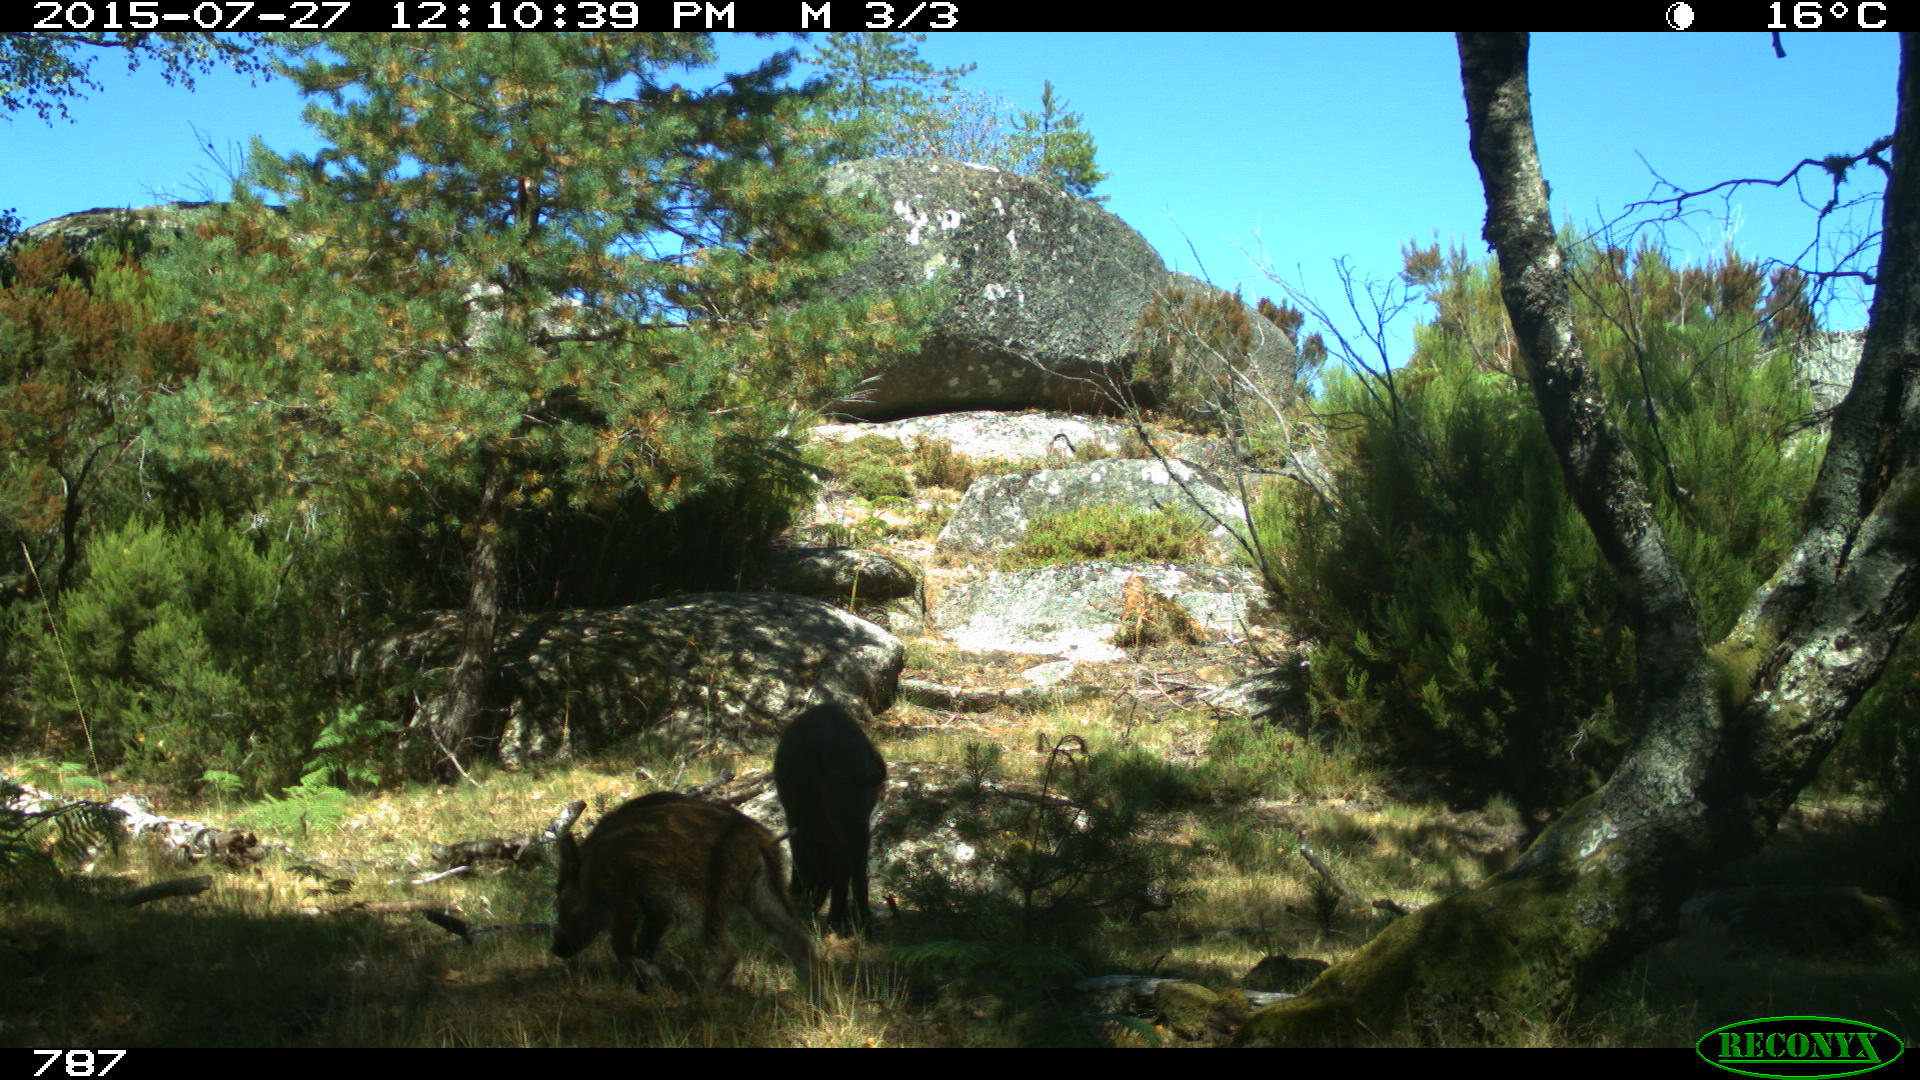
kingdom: Animalia
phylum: Chordata
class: Mammalia
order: Artiodactyla
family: Suidae
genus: Sus
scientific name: Sus scrofa
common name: Wild boar
